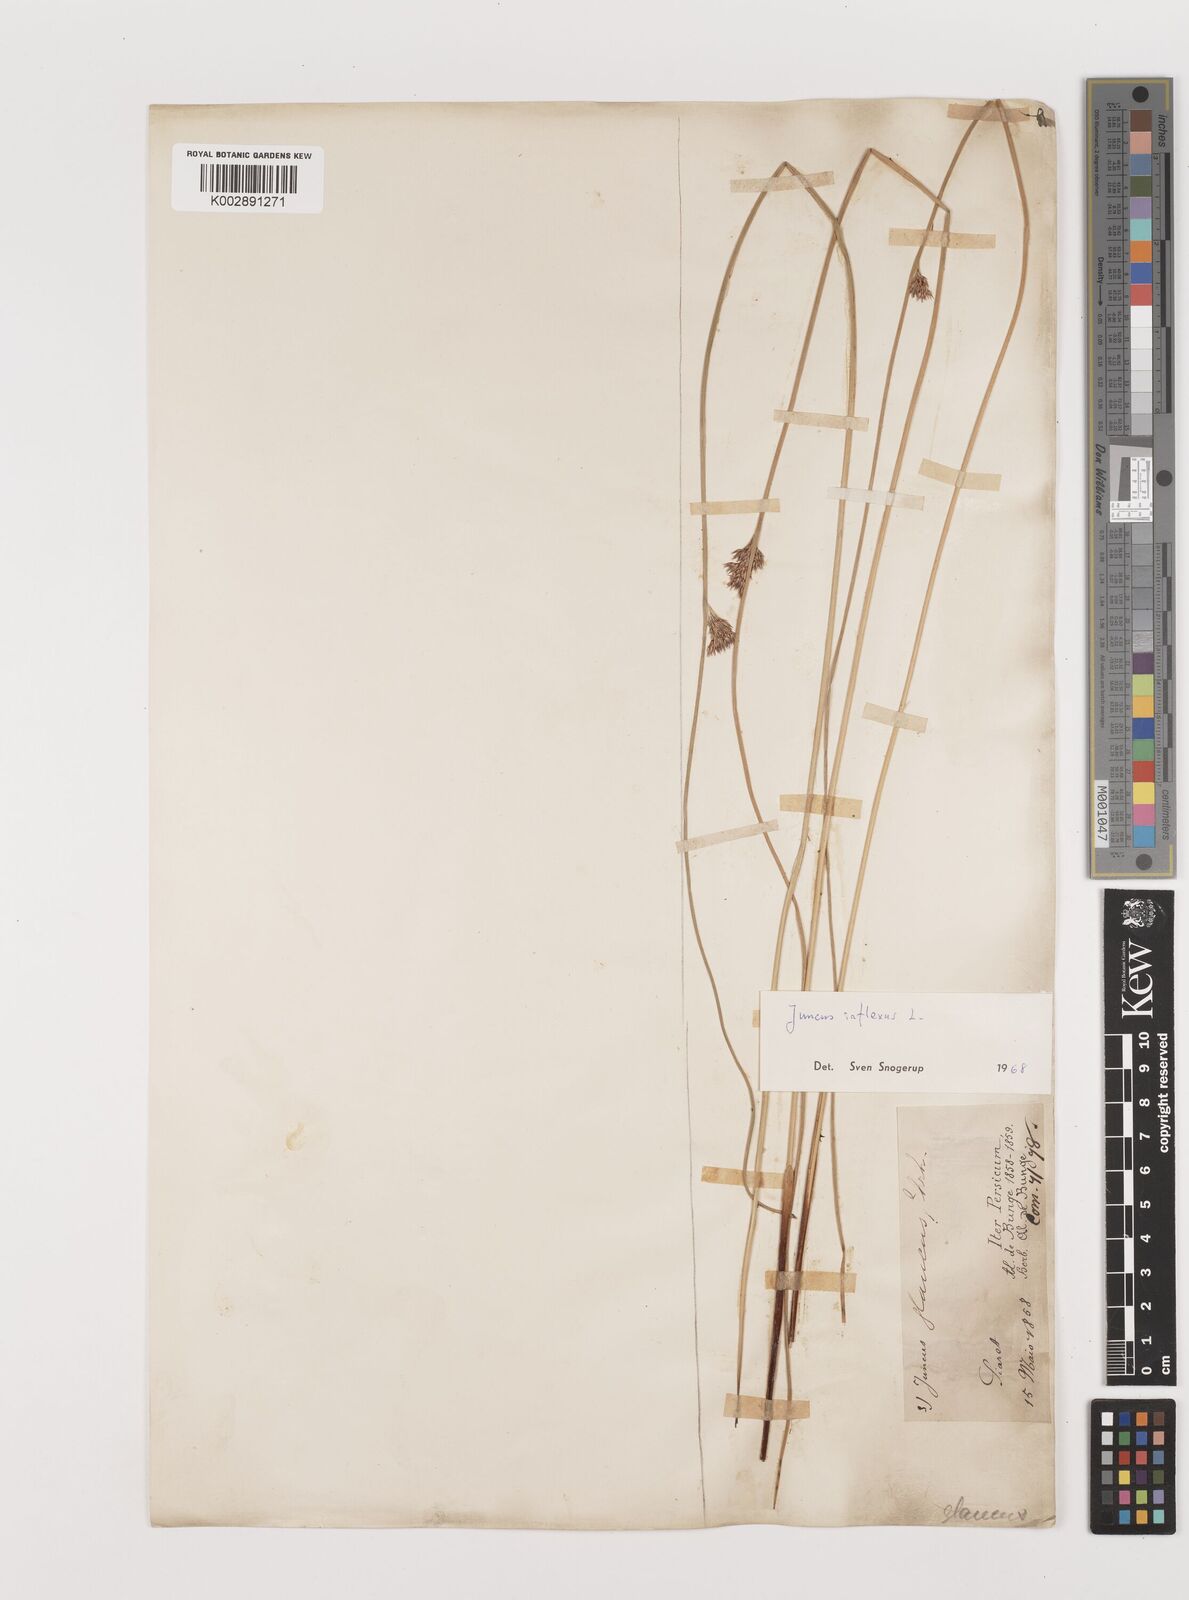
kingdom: Plantae
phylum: Tracheophyta
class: Liliopsida
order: Poales
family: Juncaceae
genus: Juncus
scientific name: Juncus inflexus
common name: Hard rush
